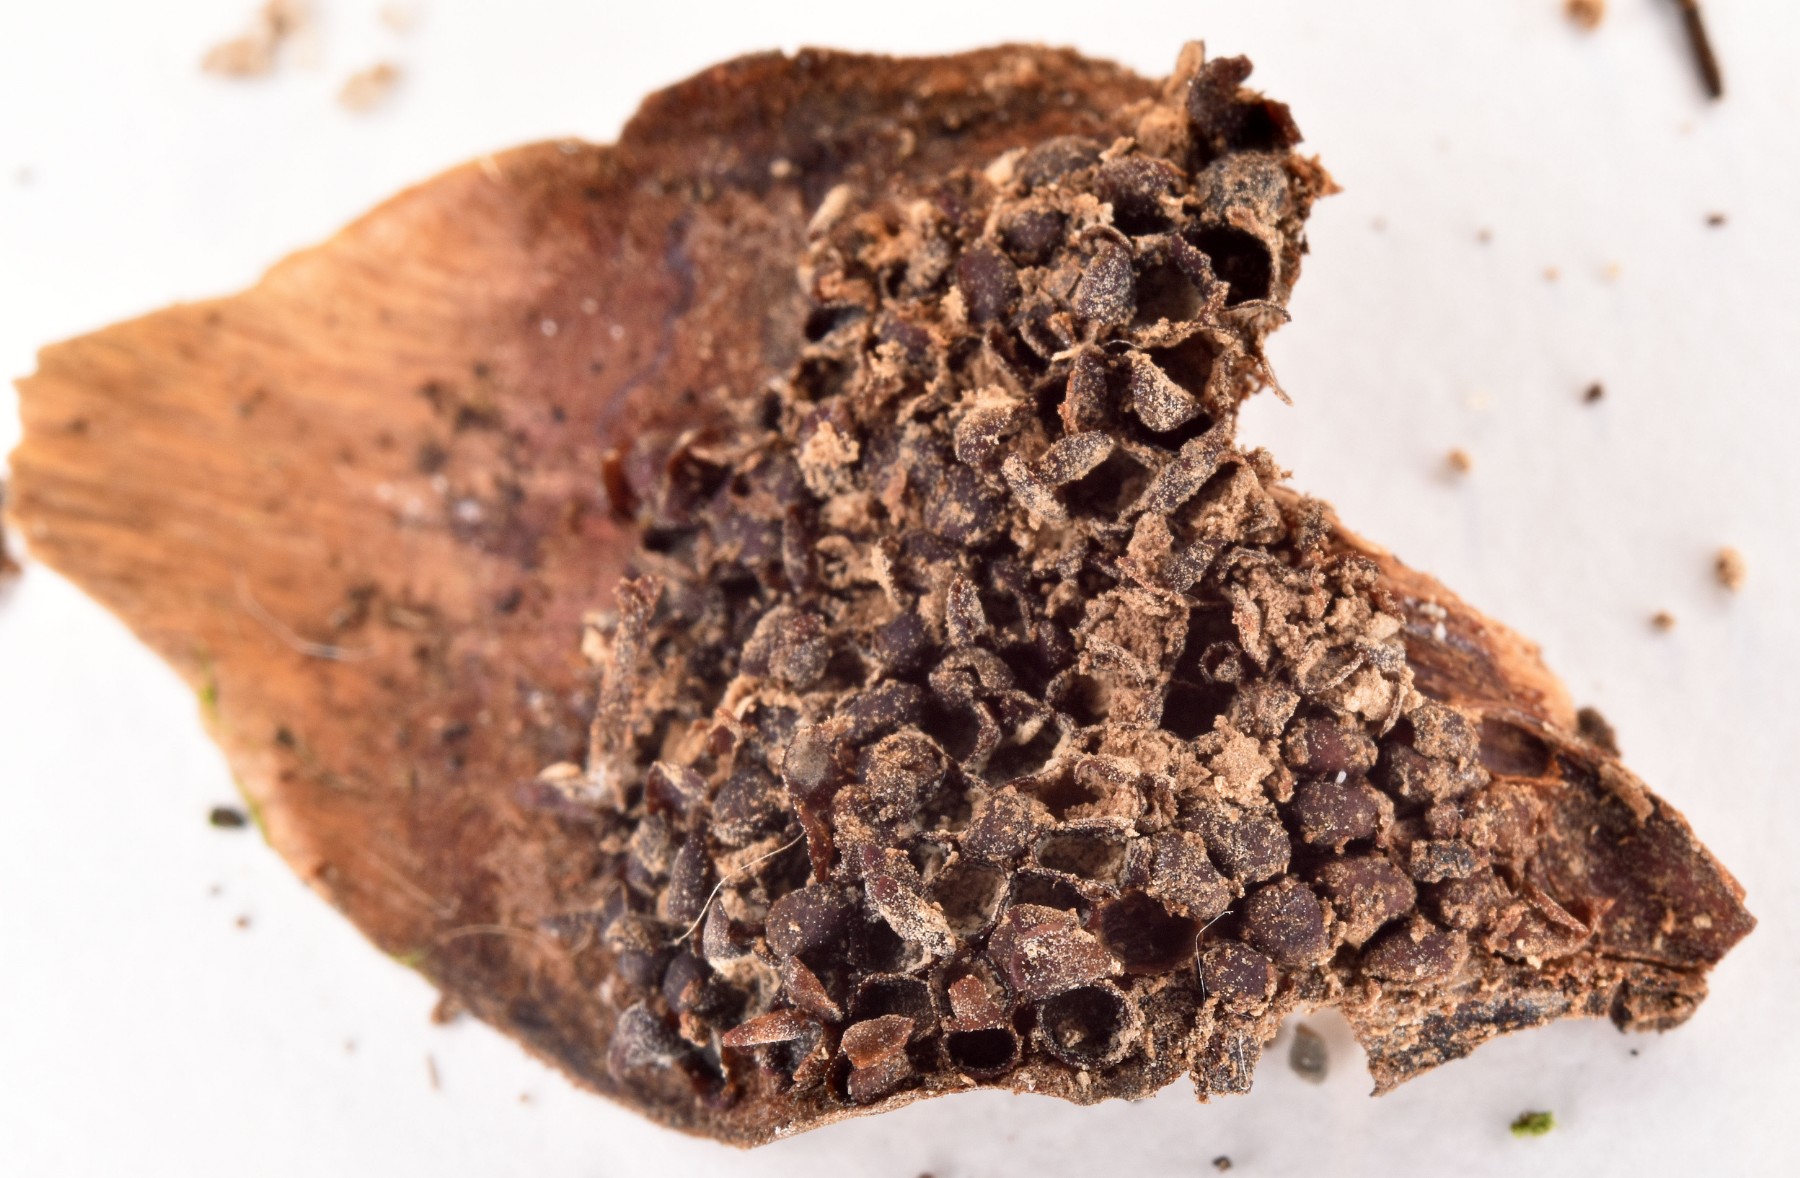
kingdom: Fungi
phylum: Basidiomycota
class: Pucciniomycetes
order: Pucciniales
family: Pucciniastraceae
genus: Thekopsora
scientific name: Thekopsora areolata
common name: grankogle-nålerust
